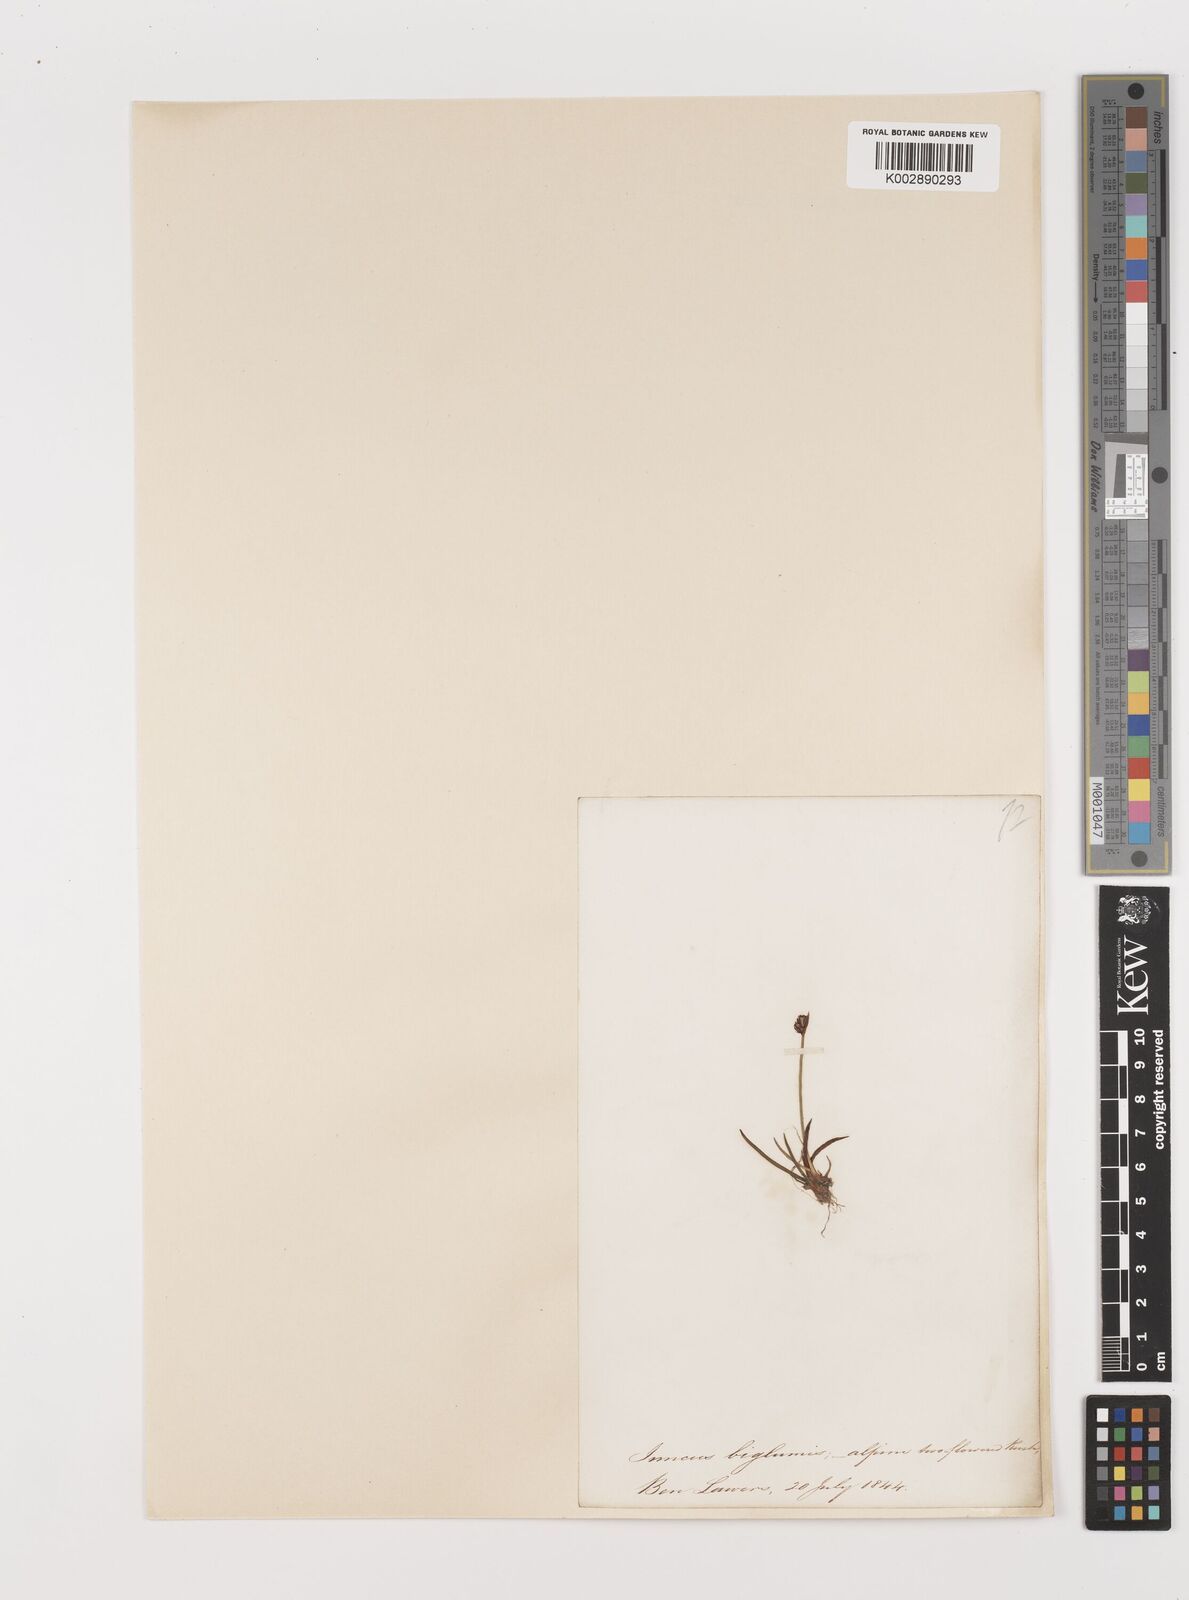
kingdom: Plantae
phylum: Tracheophyta
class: Liliopsida
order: Poales
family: Juncaceae
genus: Juncus
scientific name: Juncus biglumis
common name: Two-flowered rush
